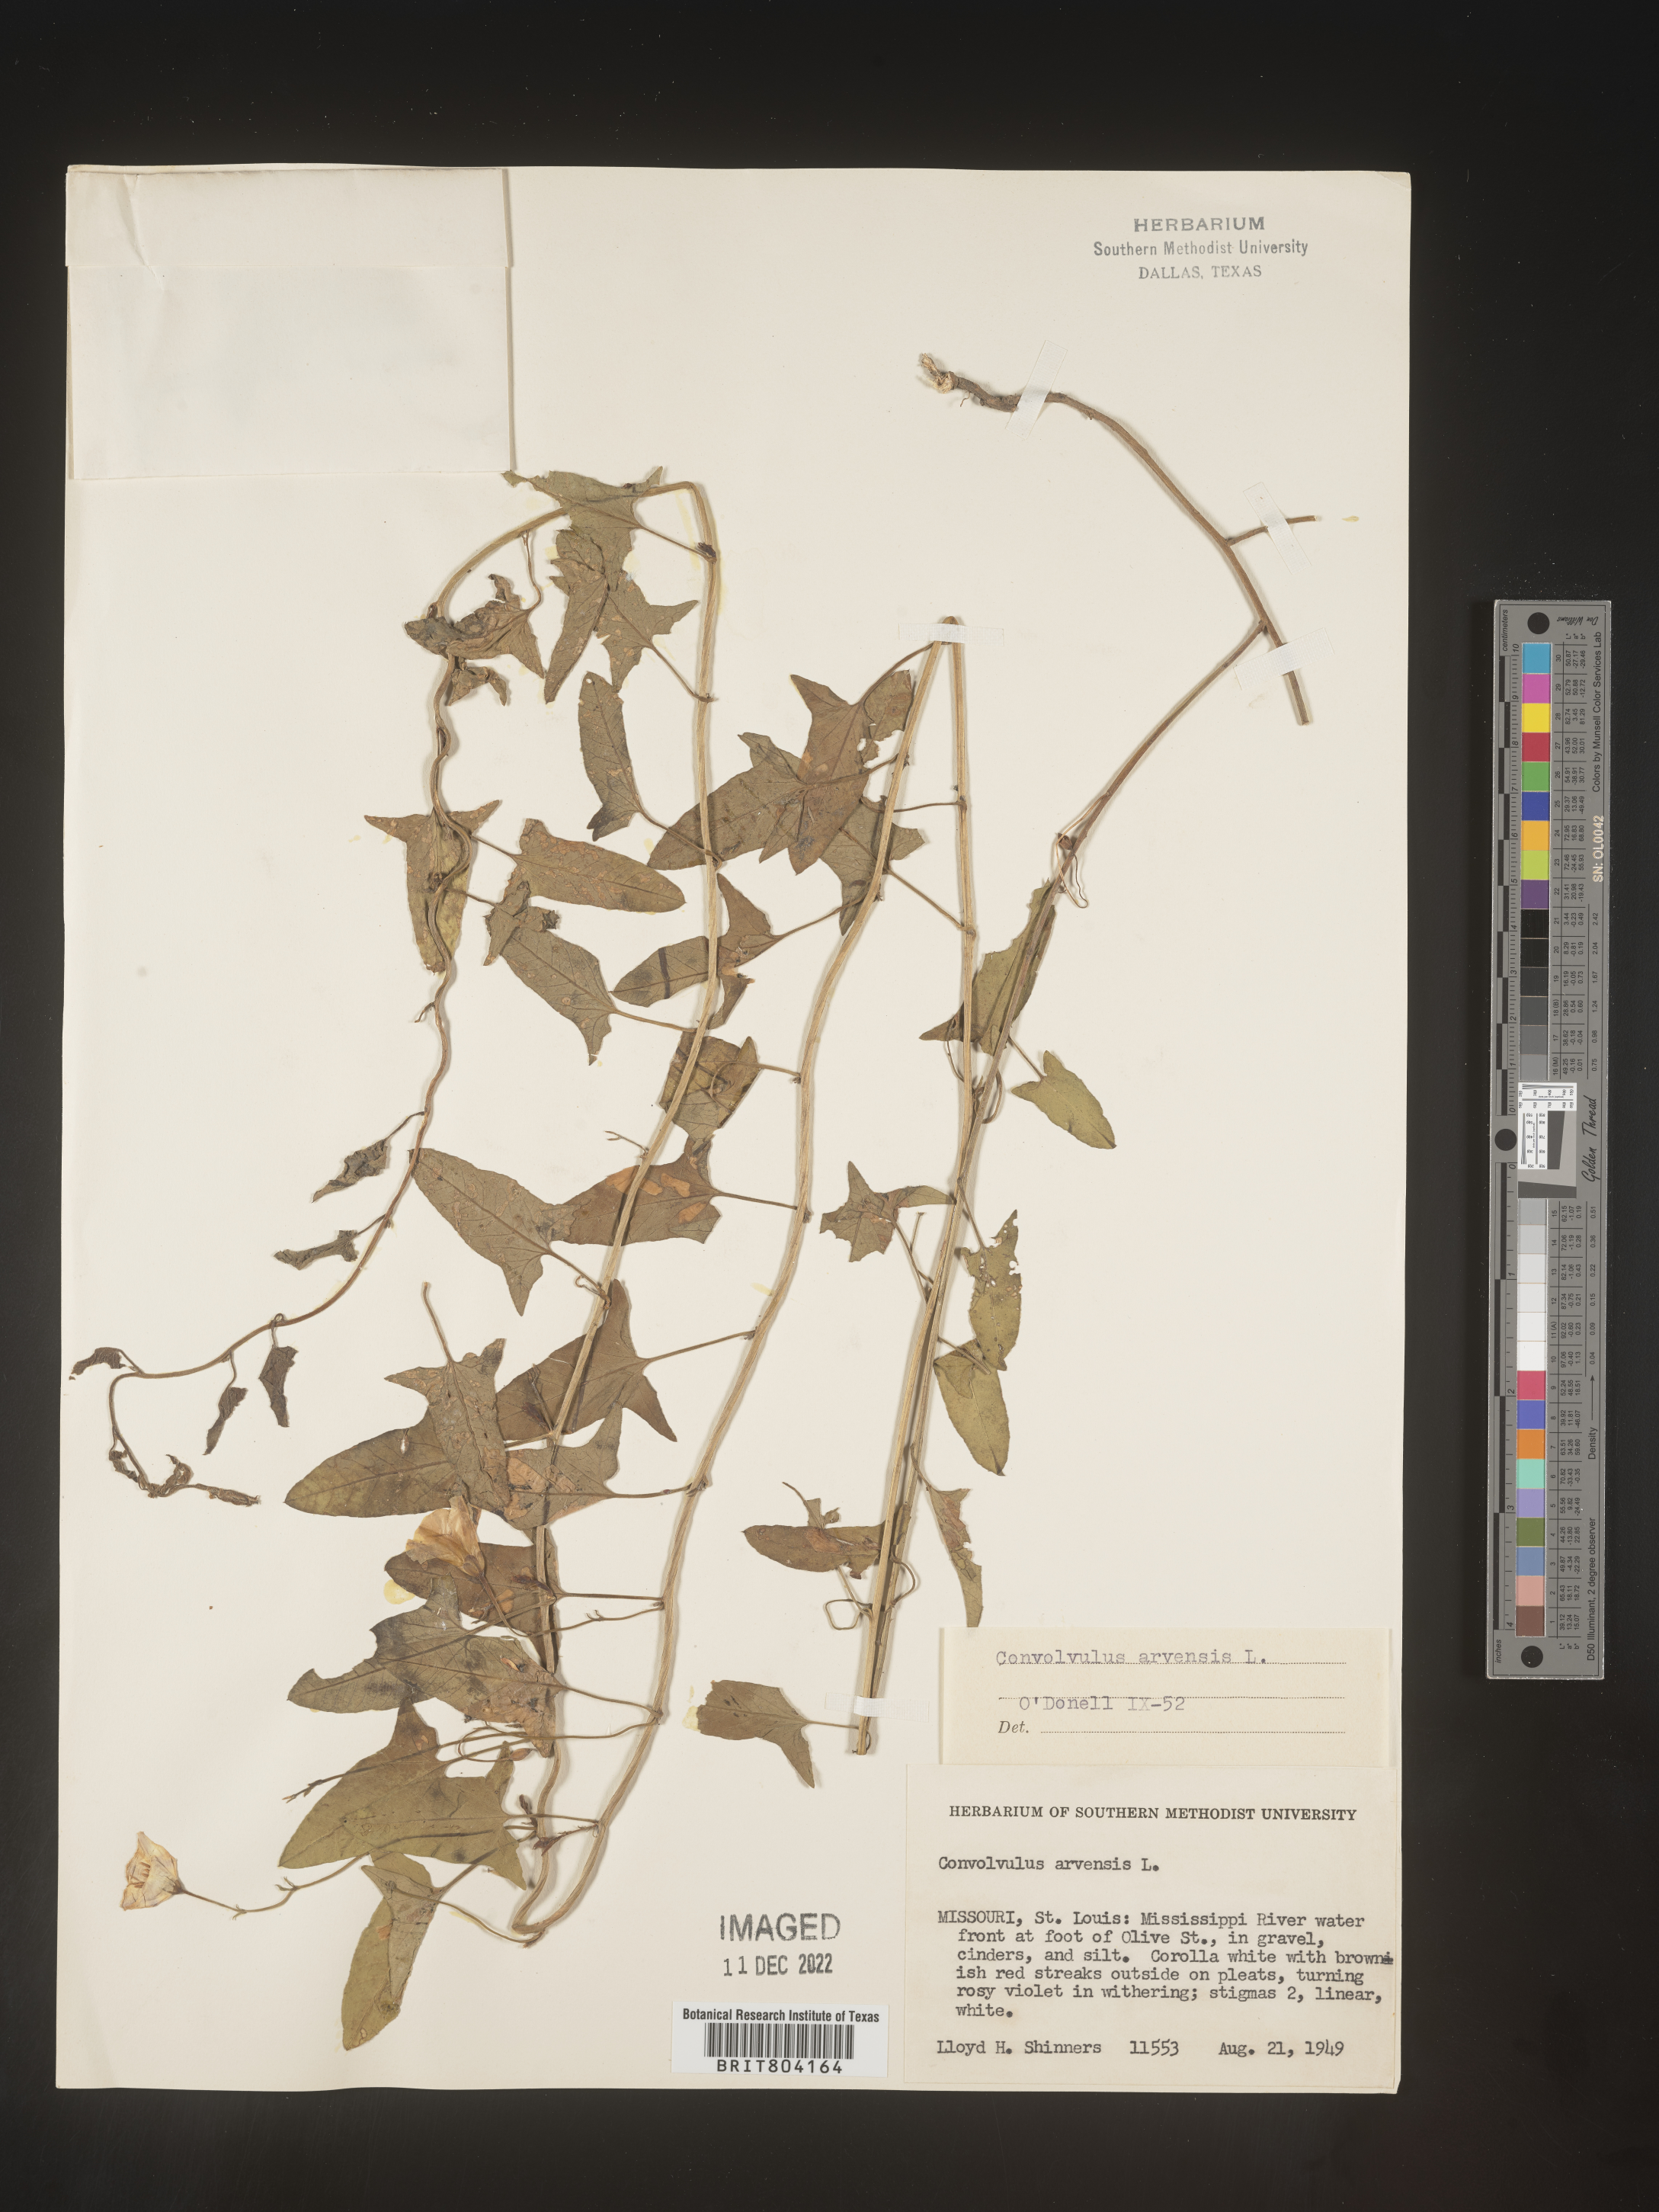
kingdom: Plantae
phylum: Tracheophyta
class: Magnoliopsida
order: Solanales
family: Convolvulaceae
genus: Convolvulus
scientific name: Convolvulus arvensis
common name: Field bindweed
